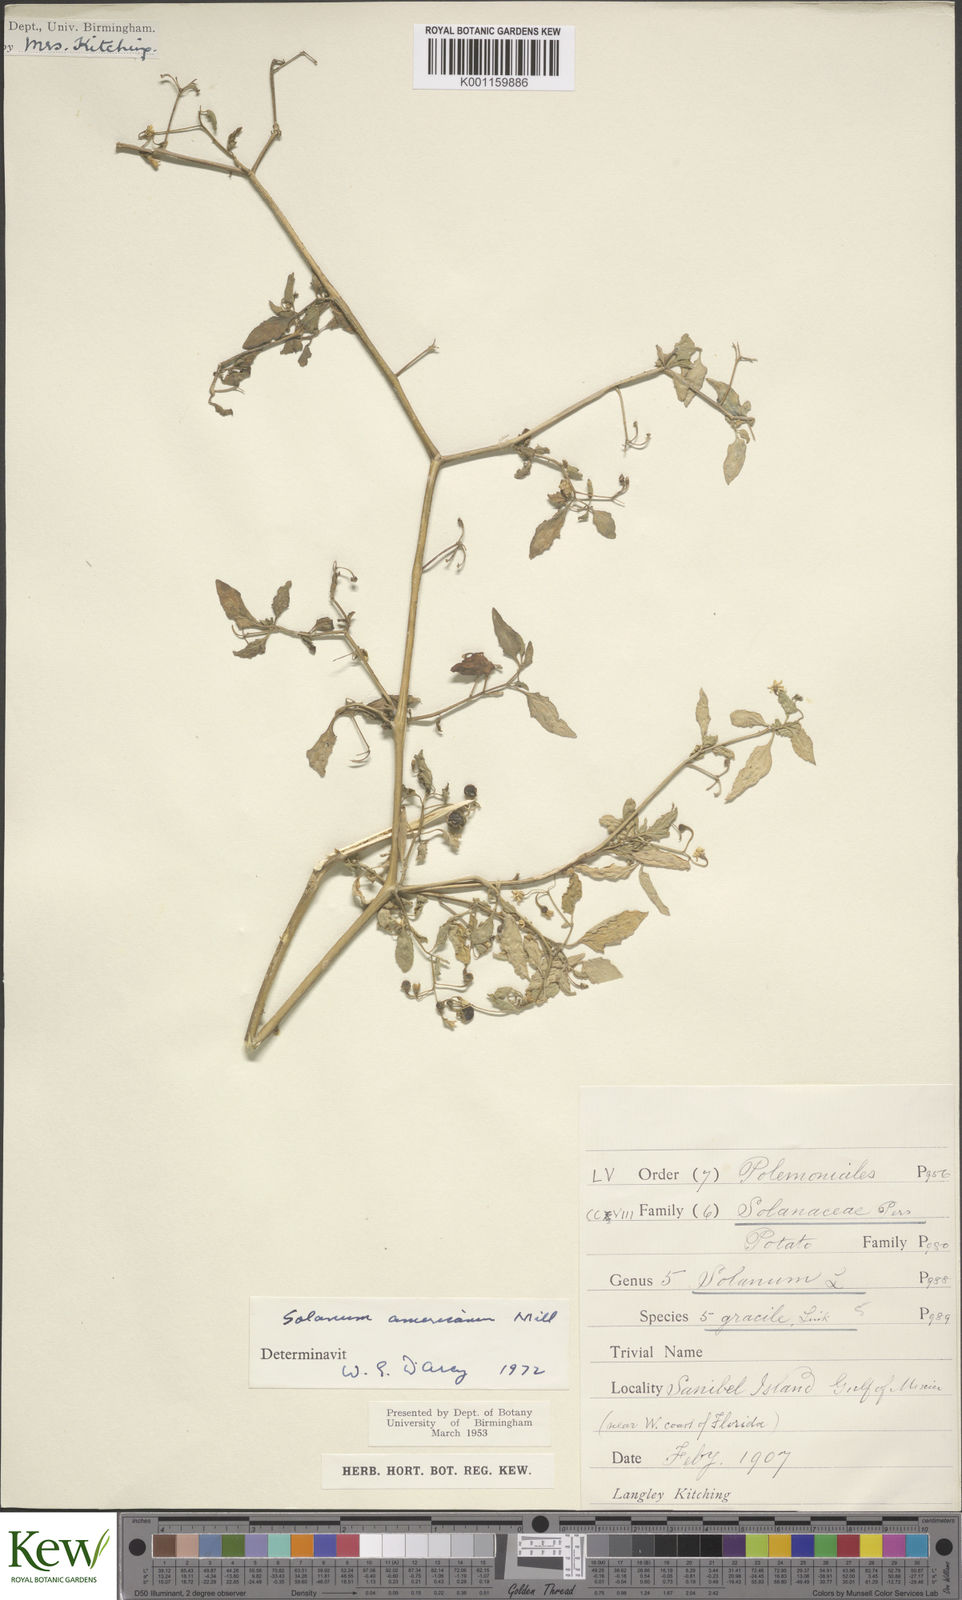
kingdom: Plantae
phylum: Tracheophyta
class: Magnoliopsida
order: Solanales
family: Solanaceae
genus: Solanum
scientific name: Solanum americanum
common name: American black nightshade
